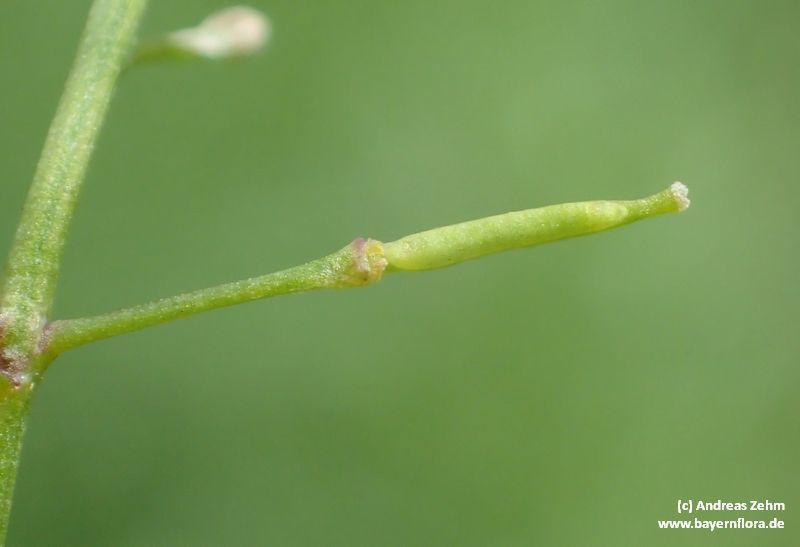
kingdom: Plantae
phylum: Tracheophyta
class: Magnoliopsida
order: Brassicales
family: Brassicaceae
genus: Rorippa
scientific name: Rorippa sylvestris
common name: Creeping yellowcress
